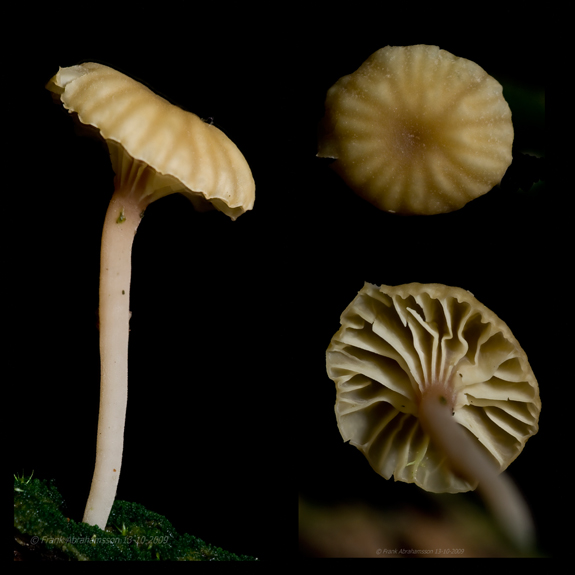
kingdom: Fungi
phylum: Basidiomycota
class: Agaricomycetes
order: Agaricales
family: Hygrophoraceae
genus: Lichenomphalia
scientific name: Lichenomphalia umbellifera
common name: tørve-lavhat
